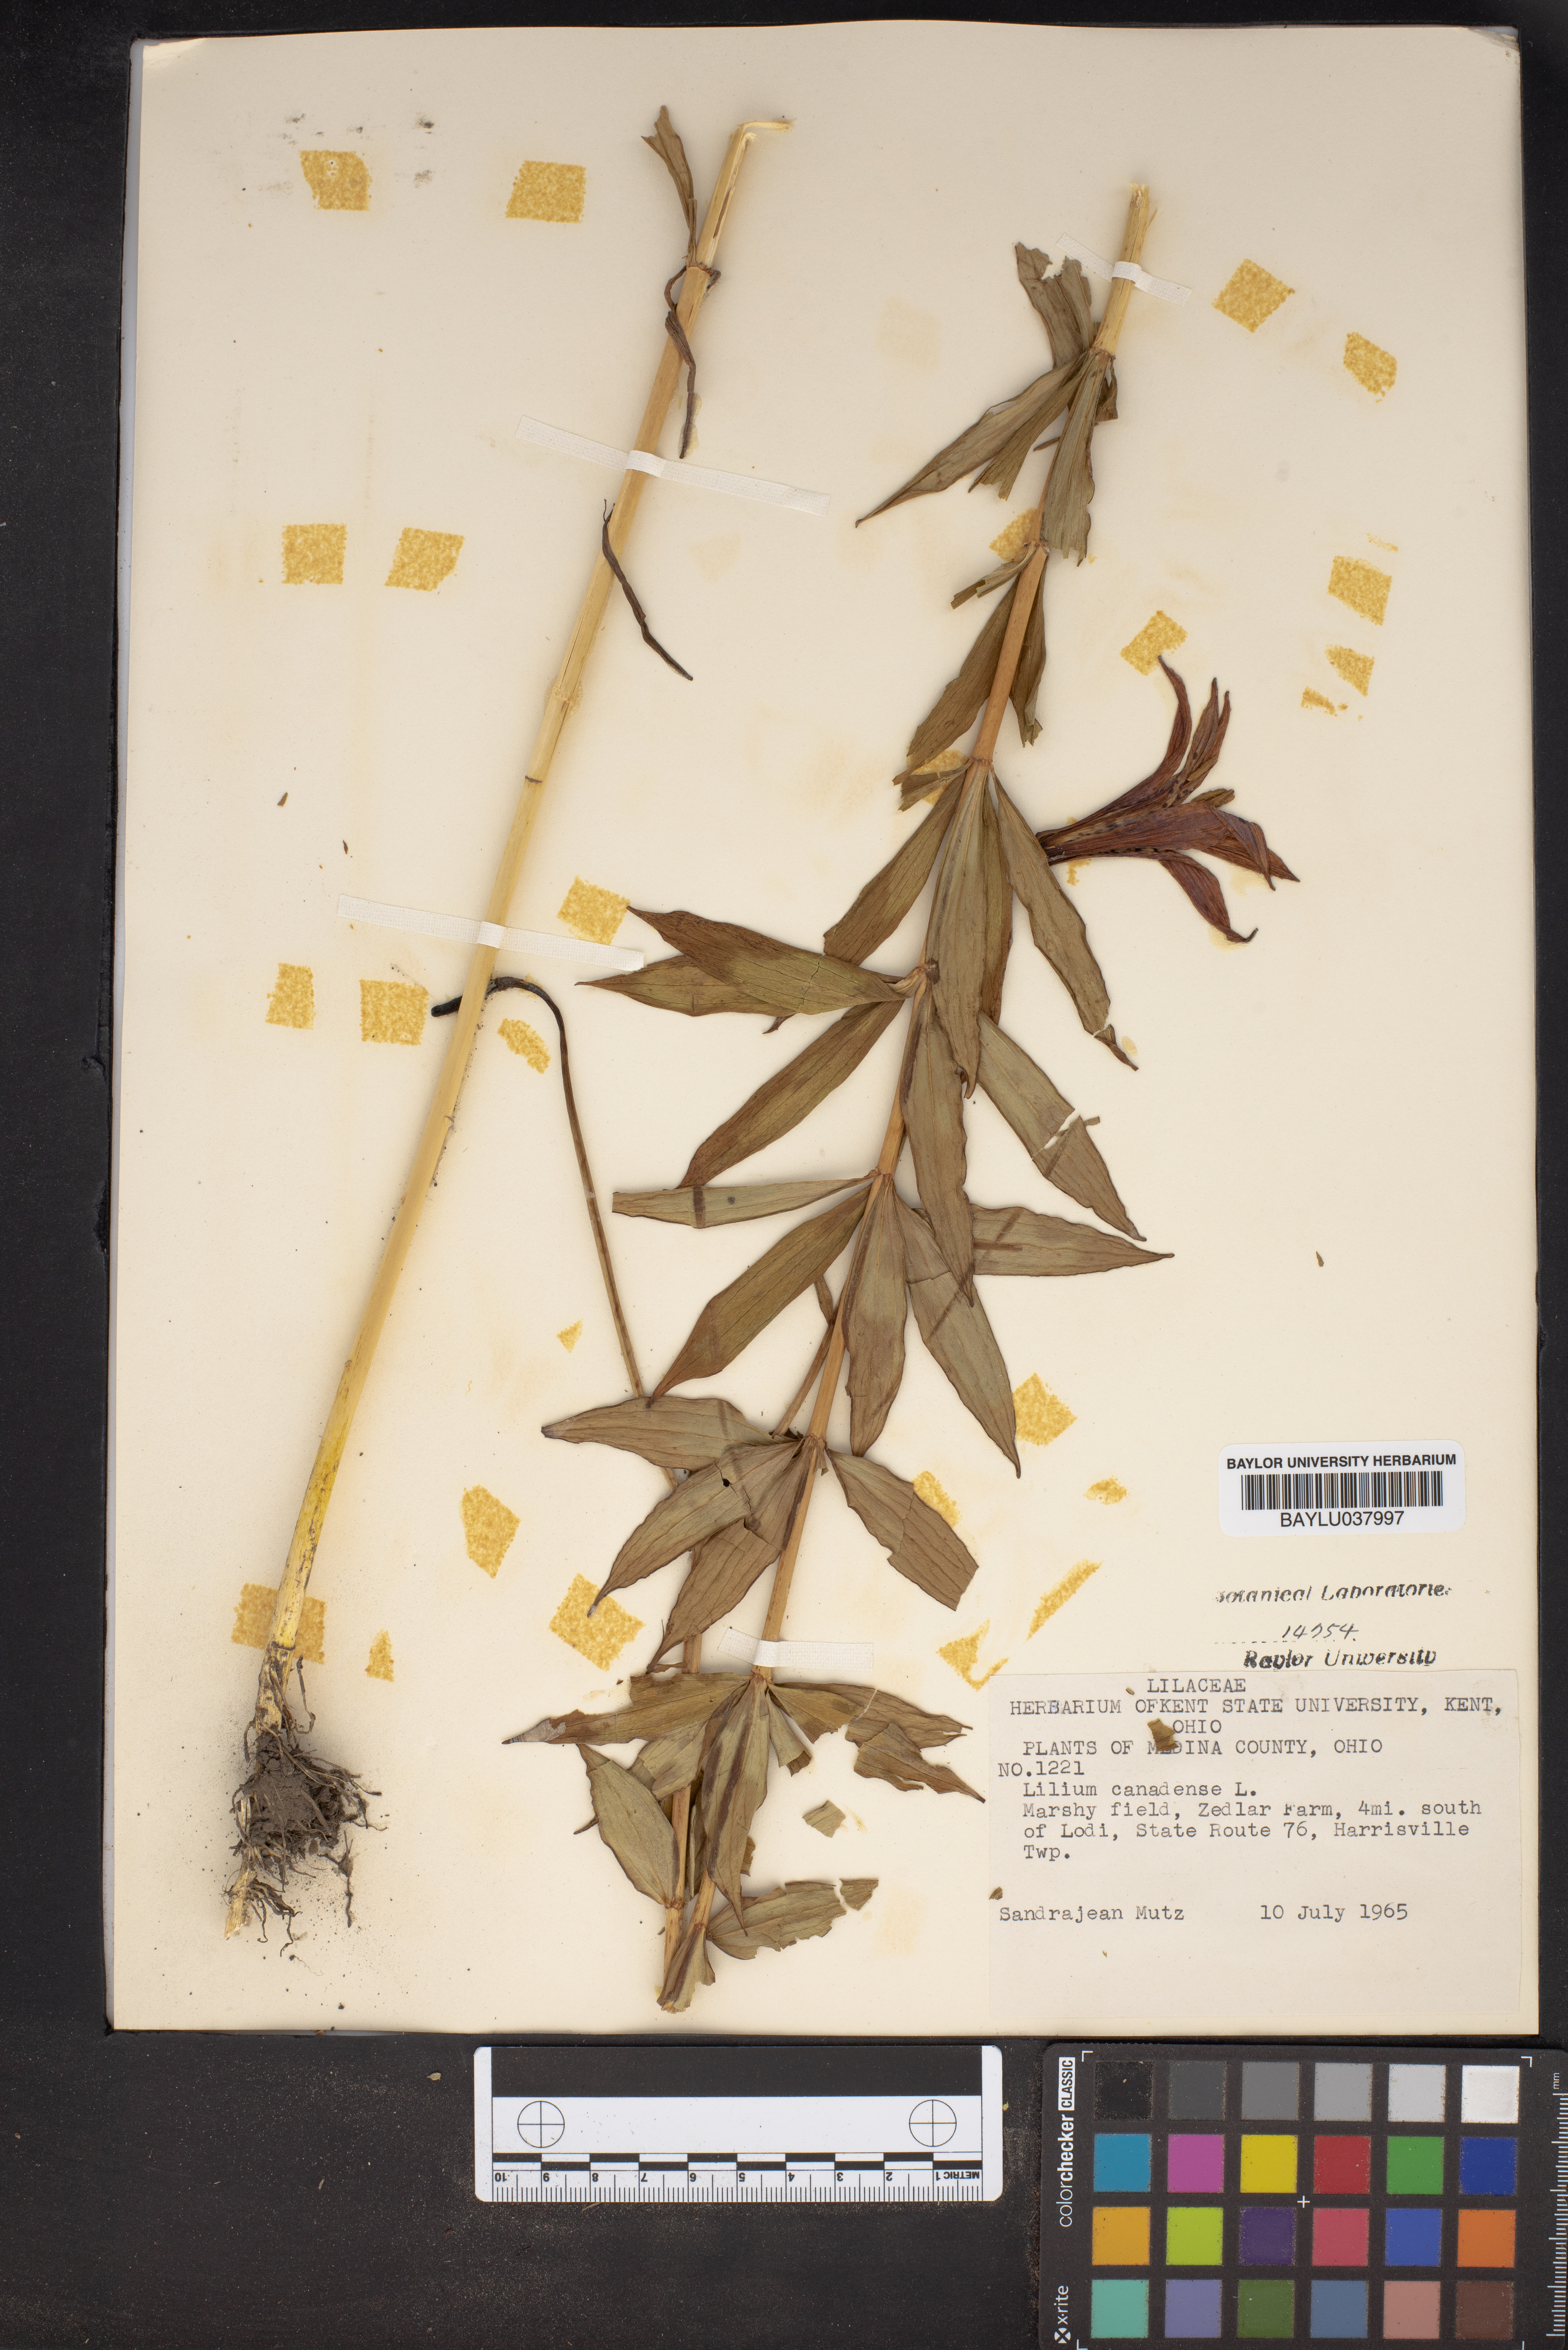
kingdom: Plantae
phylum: Tracheophyta
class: Liliopsida
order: Liliales
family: Liliaceae
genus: Lilium
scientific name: Lilium canadense
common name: Canada lily
